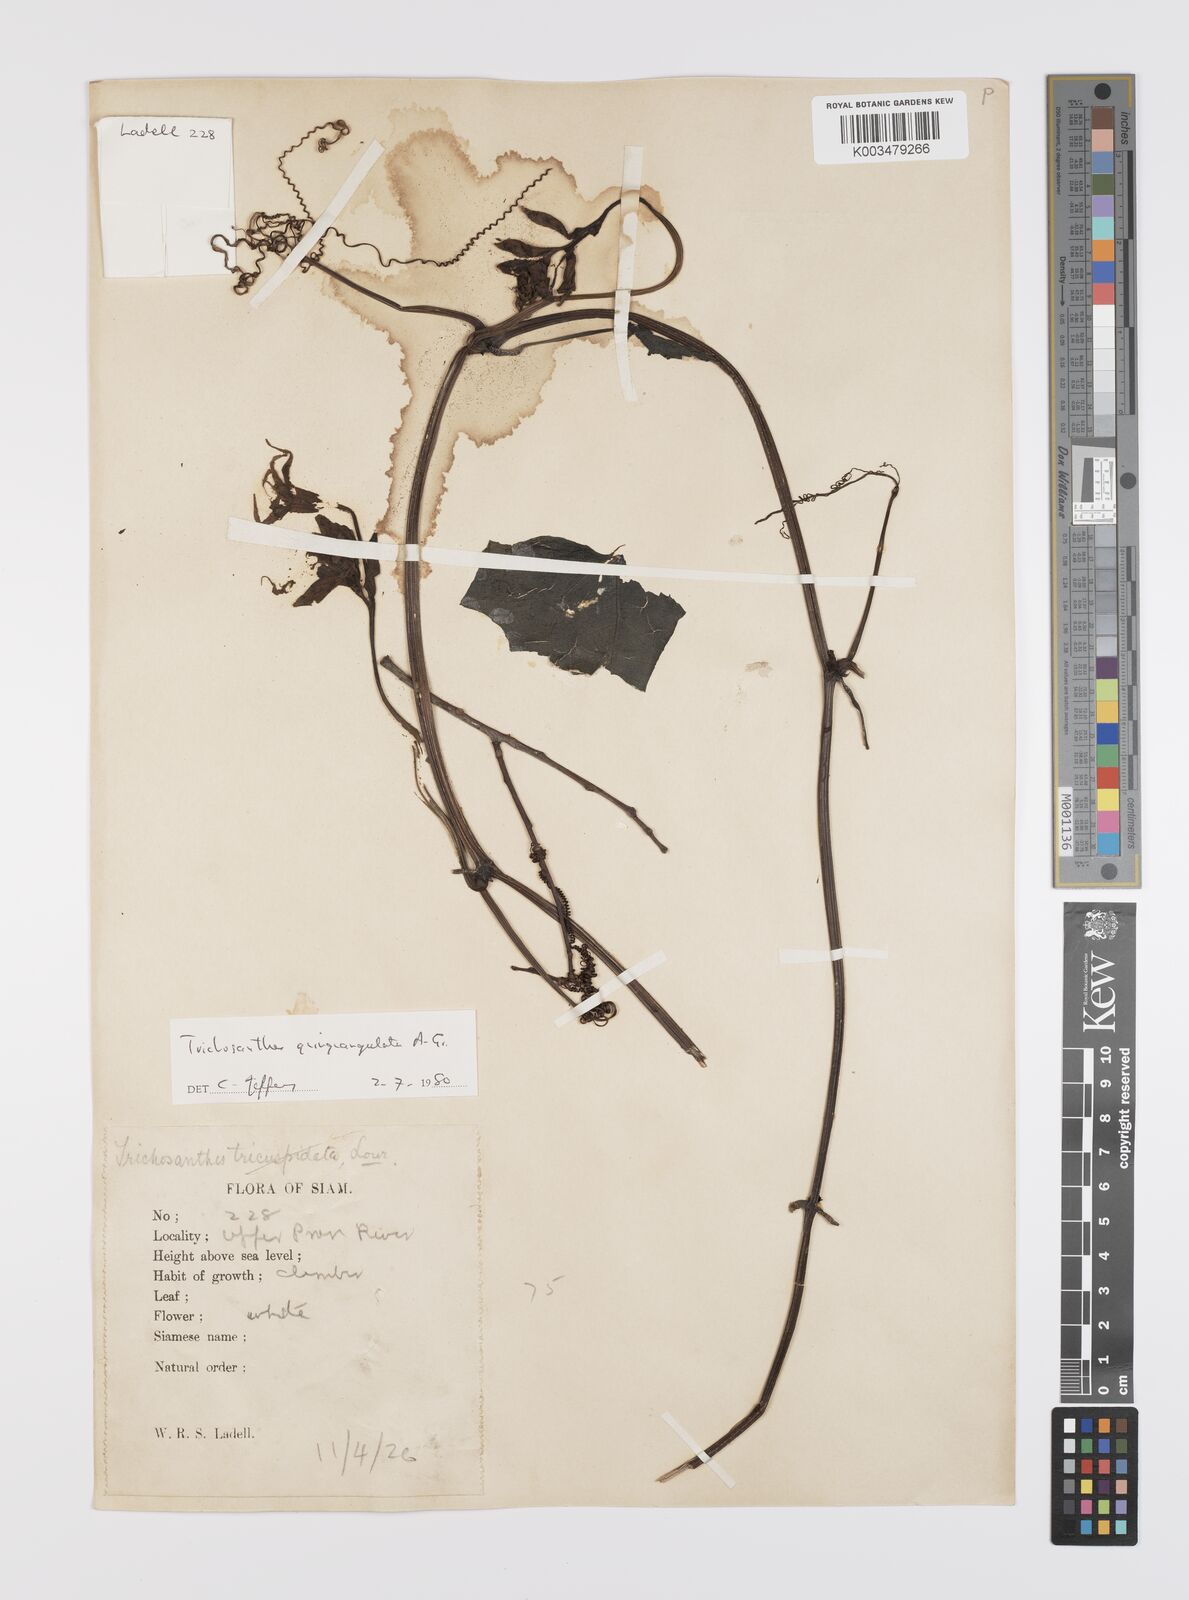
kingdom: Plantae
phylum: Tracheophyta
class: Magnoliopsida
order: Cucurbitales
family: Cucurbitaceae
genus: Trichosanthes
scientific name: Trichosanthes quinquangulata
